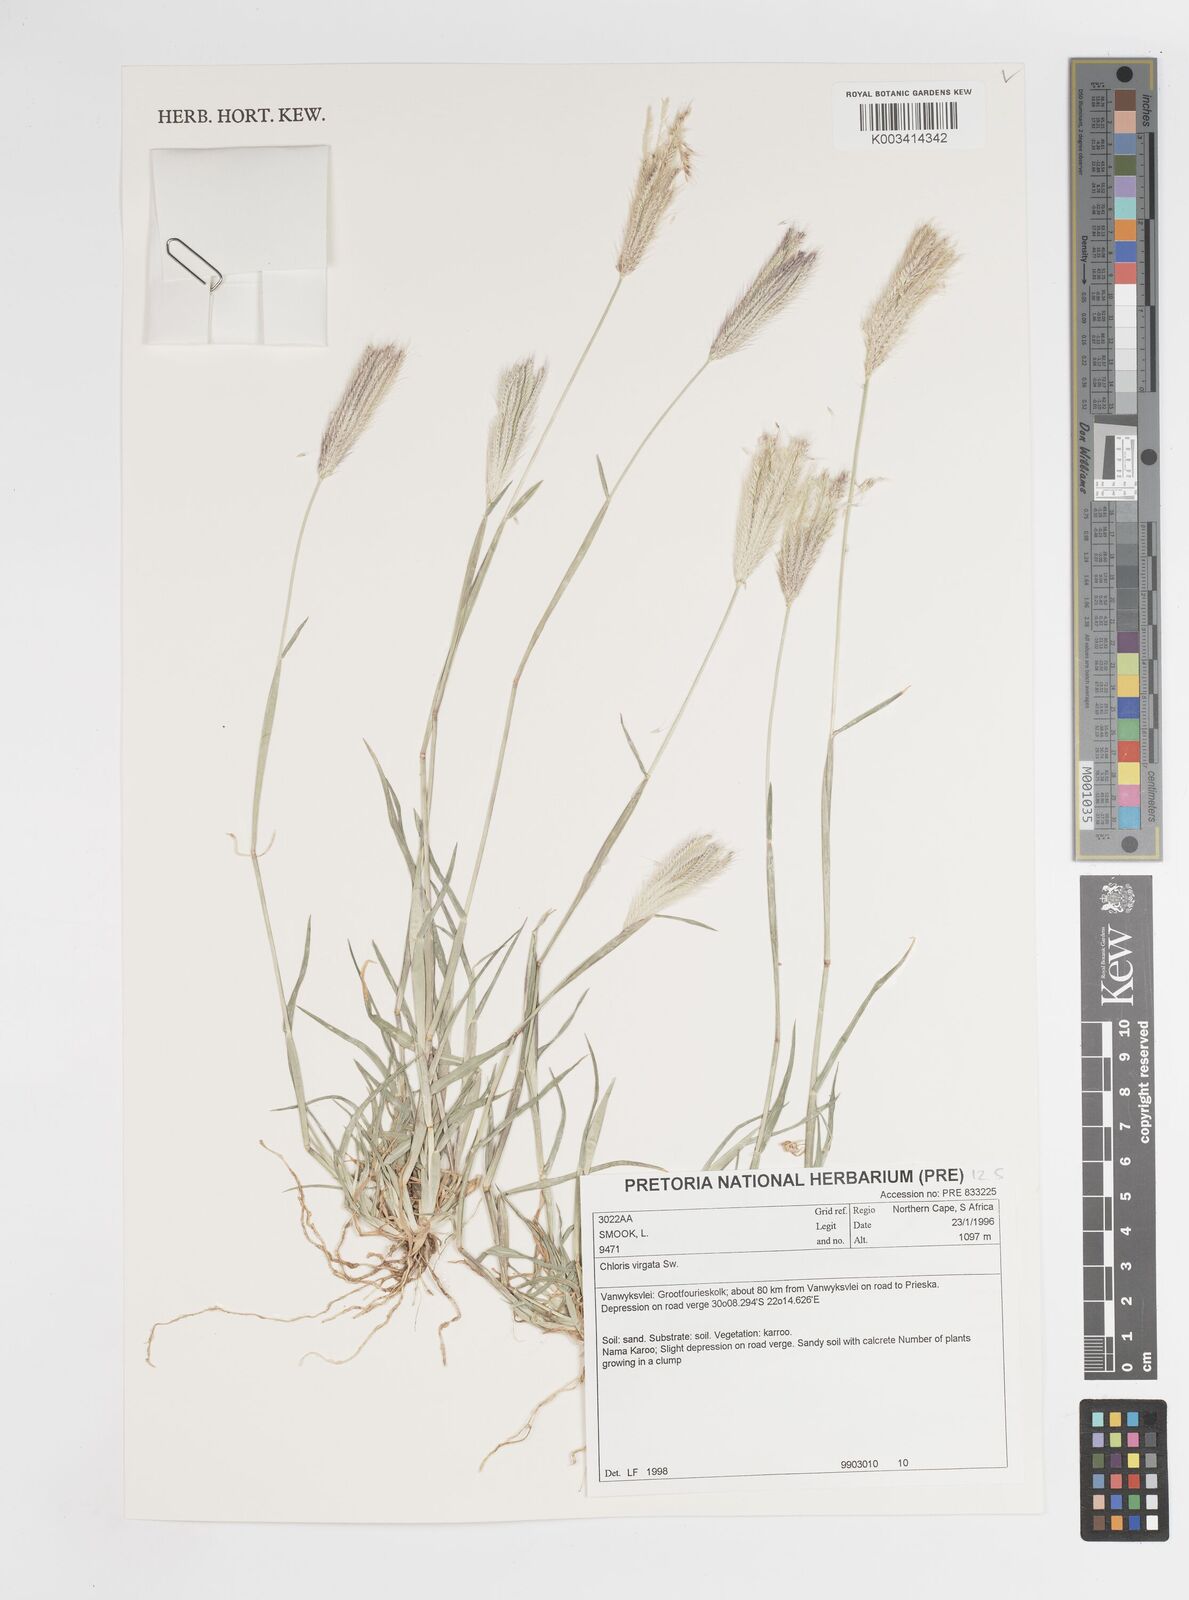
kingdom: Plantae
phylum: Tracheophyta
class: Liliopsida
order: Poales
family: Poaceae
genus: Chloris
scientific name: Chloris virgata
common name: Feathery rhodes-grass
